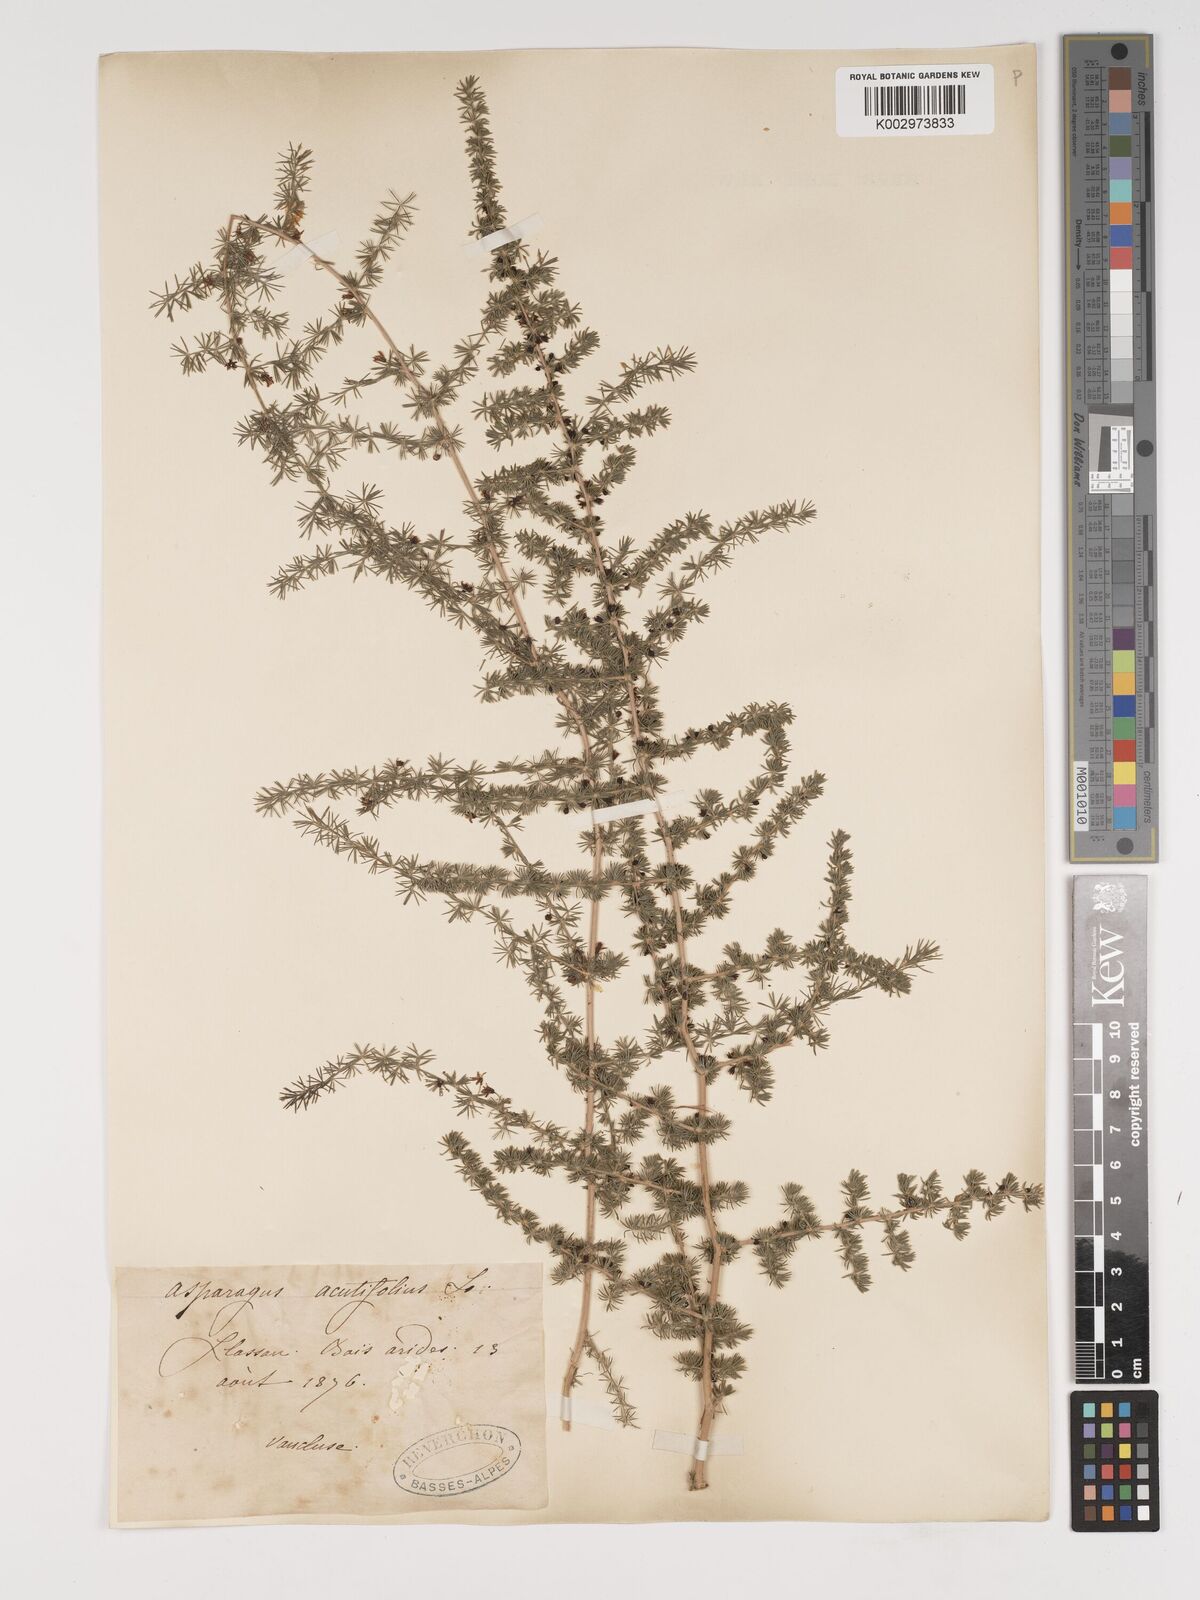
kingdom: Plantae
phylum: Tracheophyta
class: Liliopsida
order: Asparagales
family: Asparagaceae
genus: Asparagus
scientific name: Asparagus aethiopicus
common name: Sprenger's asparagus fern
